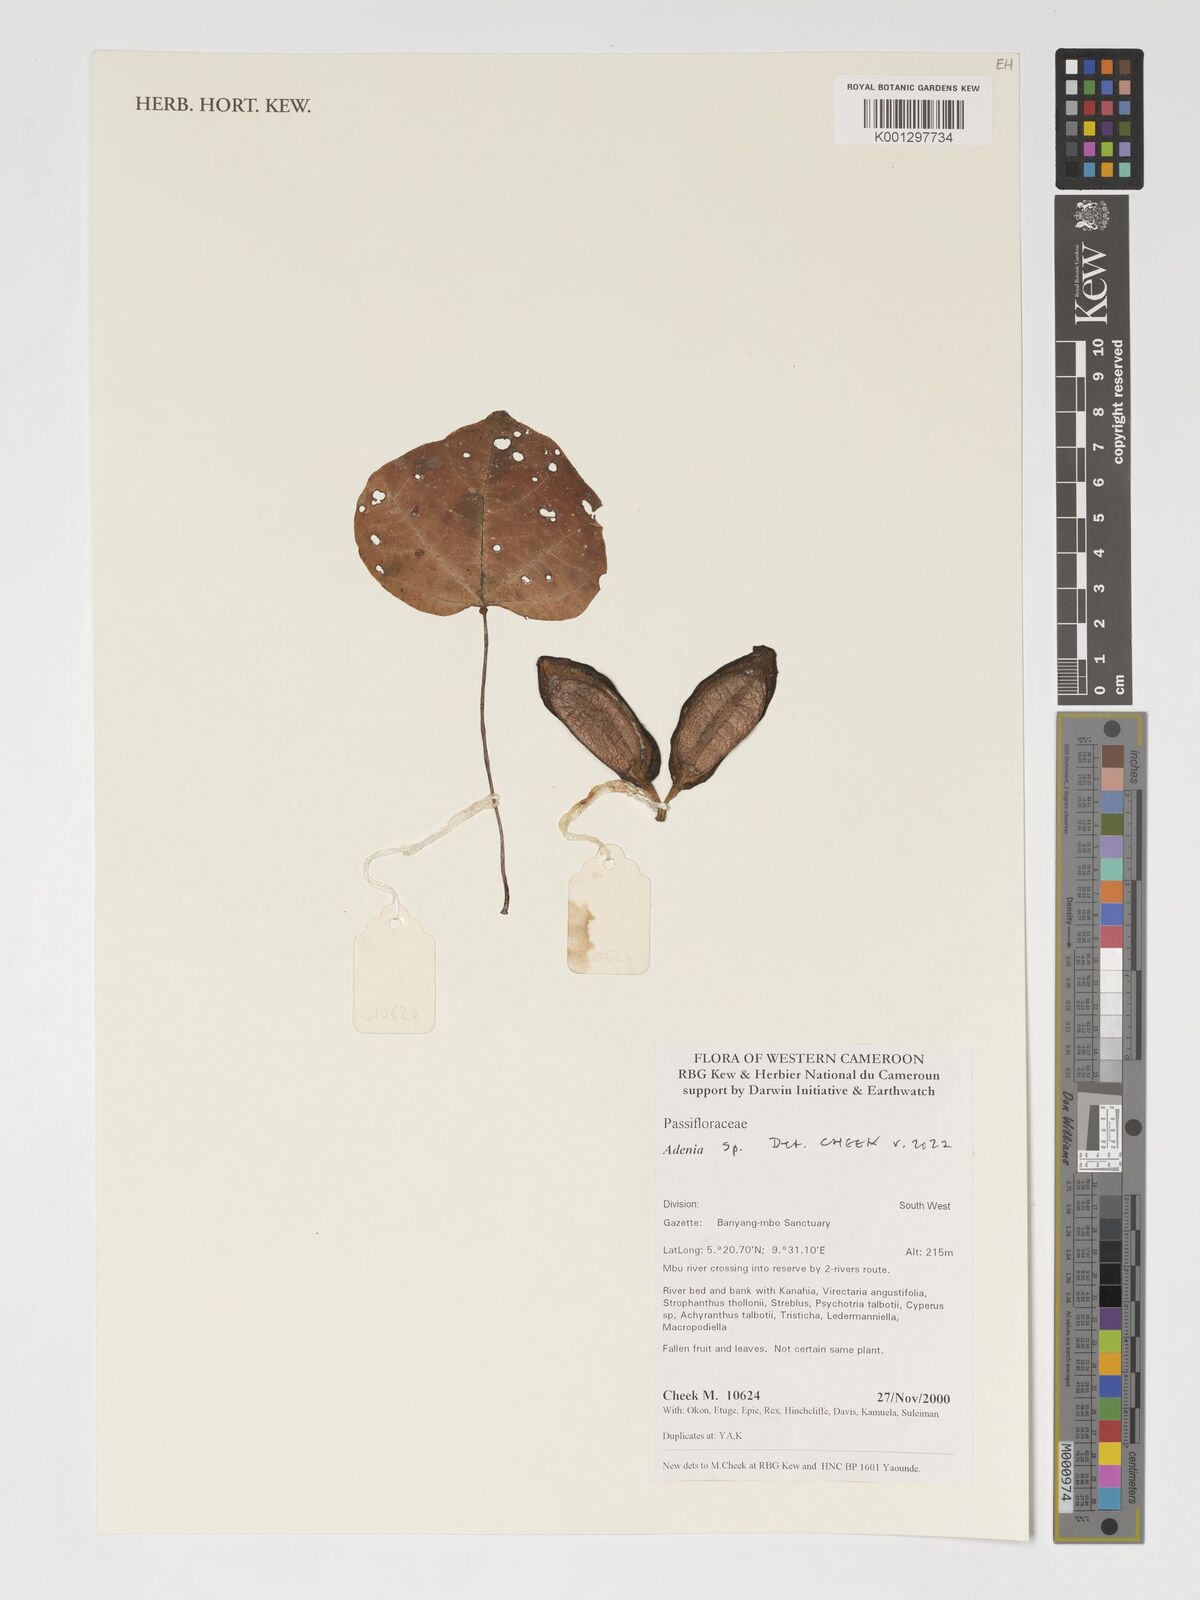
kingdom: Plantae
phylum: Tracheophyta
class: Magnoliopsida
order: Malpighiales
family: Passifloraceae
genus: Adenia
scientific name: Adenia
